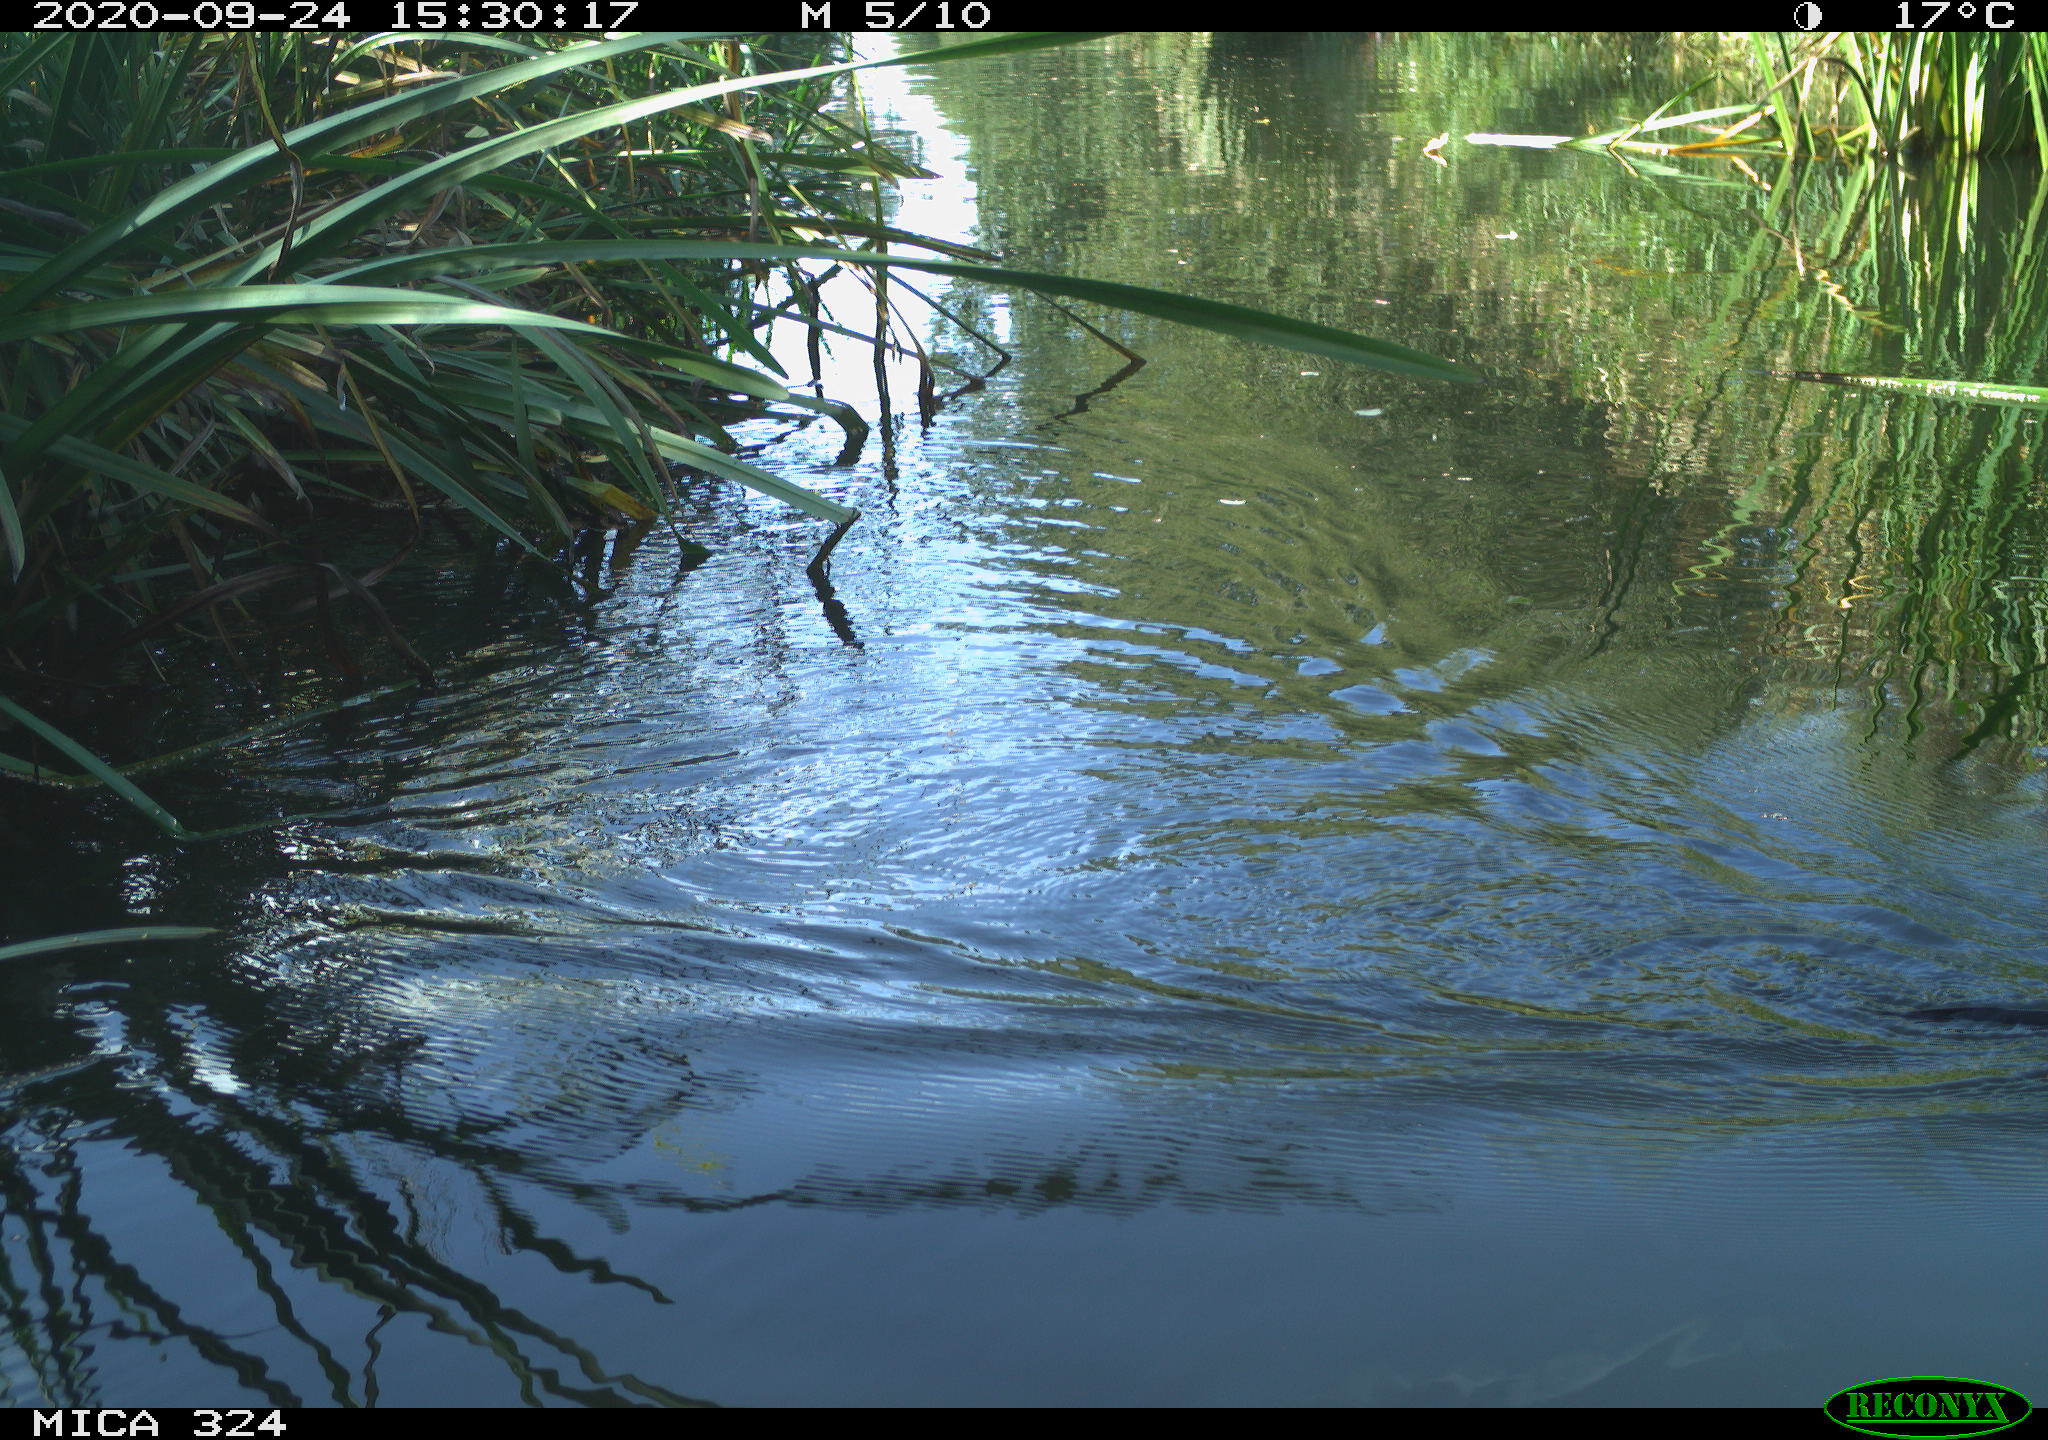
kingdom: Animalia
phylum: Chordata
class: Mammalia
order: Rodentia
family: Cricetidae
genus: Ondatra
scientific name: Ondatra zibethicus
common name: Muskrat
